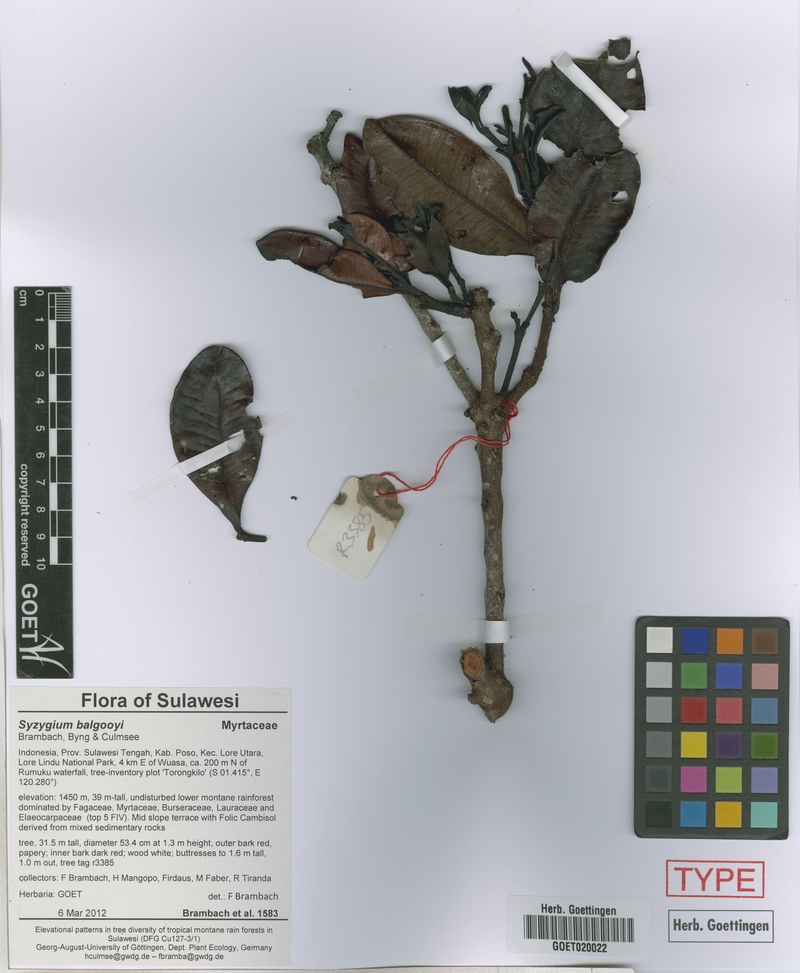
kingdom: Plantae
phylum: Tracheophyta
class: Magnoliopsida
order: Myrtales
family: Myrtaceae
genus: Syzygium
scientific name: Syzygium balgooyi
